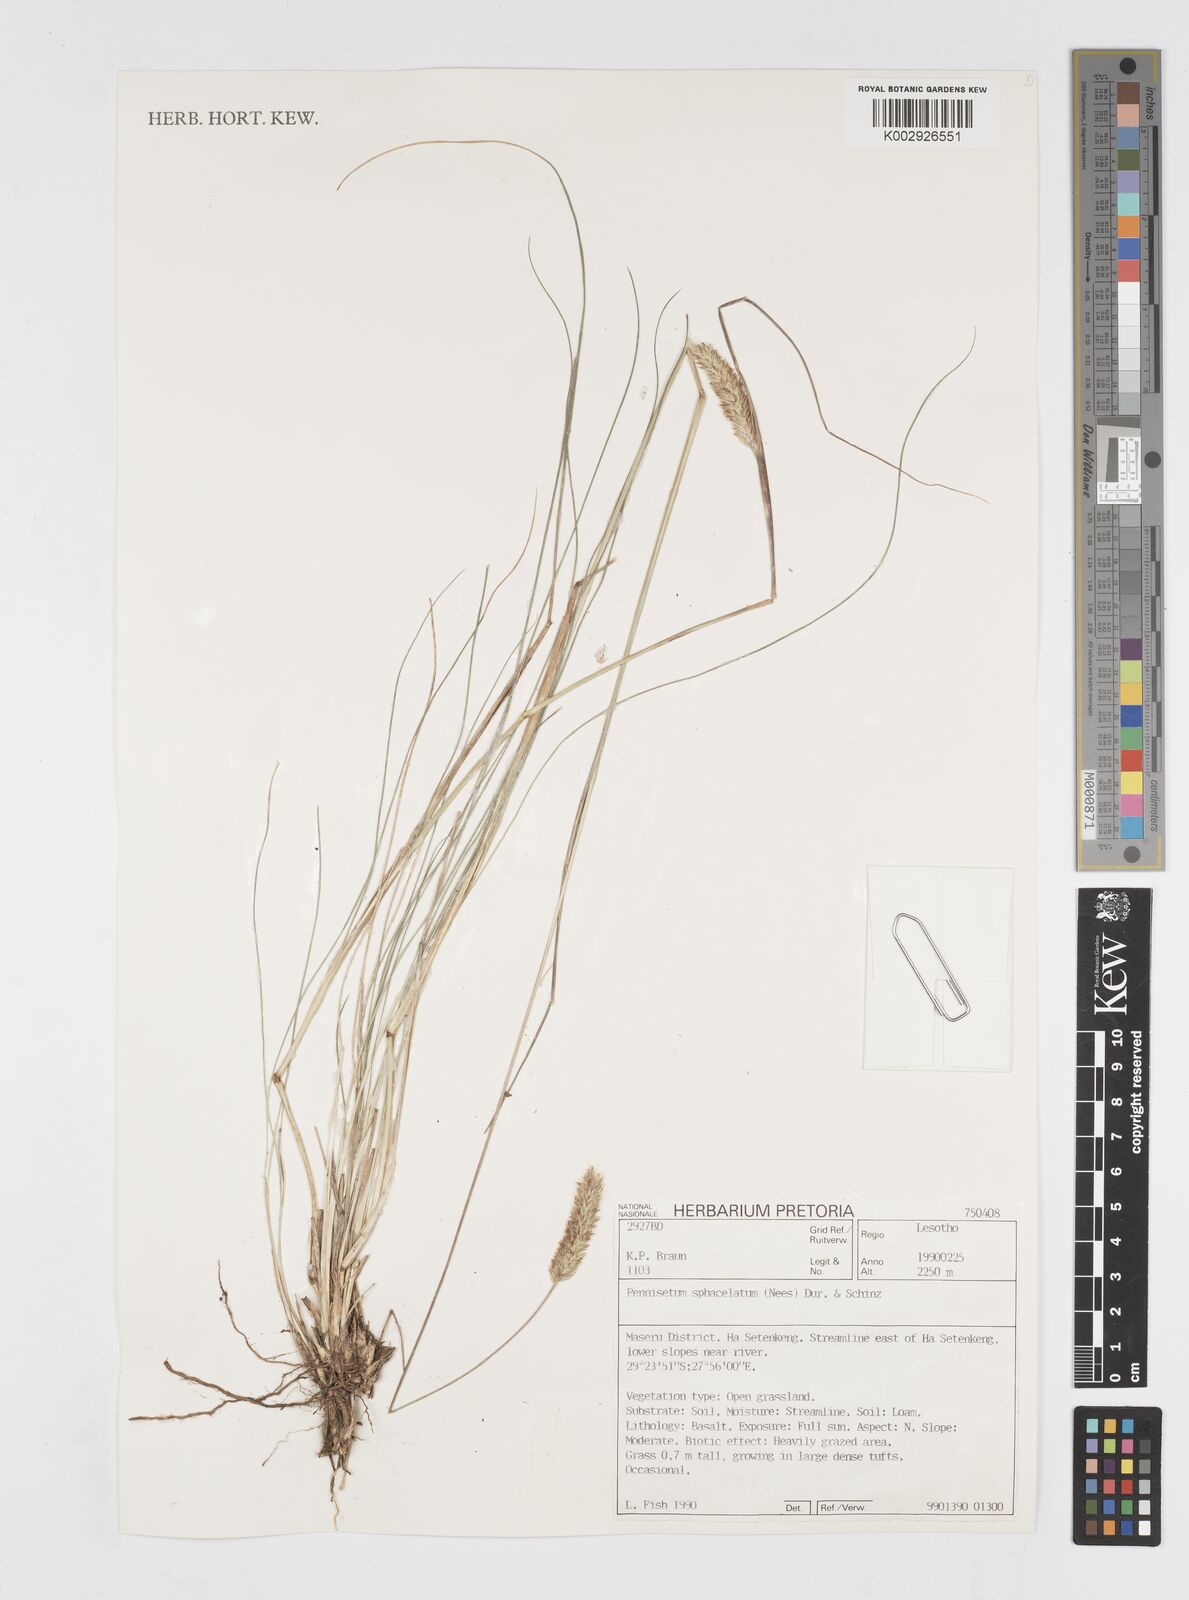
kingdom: Plantae
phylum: Tracheophyta
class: Liliopsida
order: Poales
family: Poaceae
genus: Cenchrus
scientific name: Cenchrus sphacelatus
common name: Bulgras
